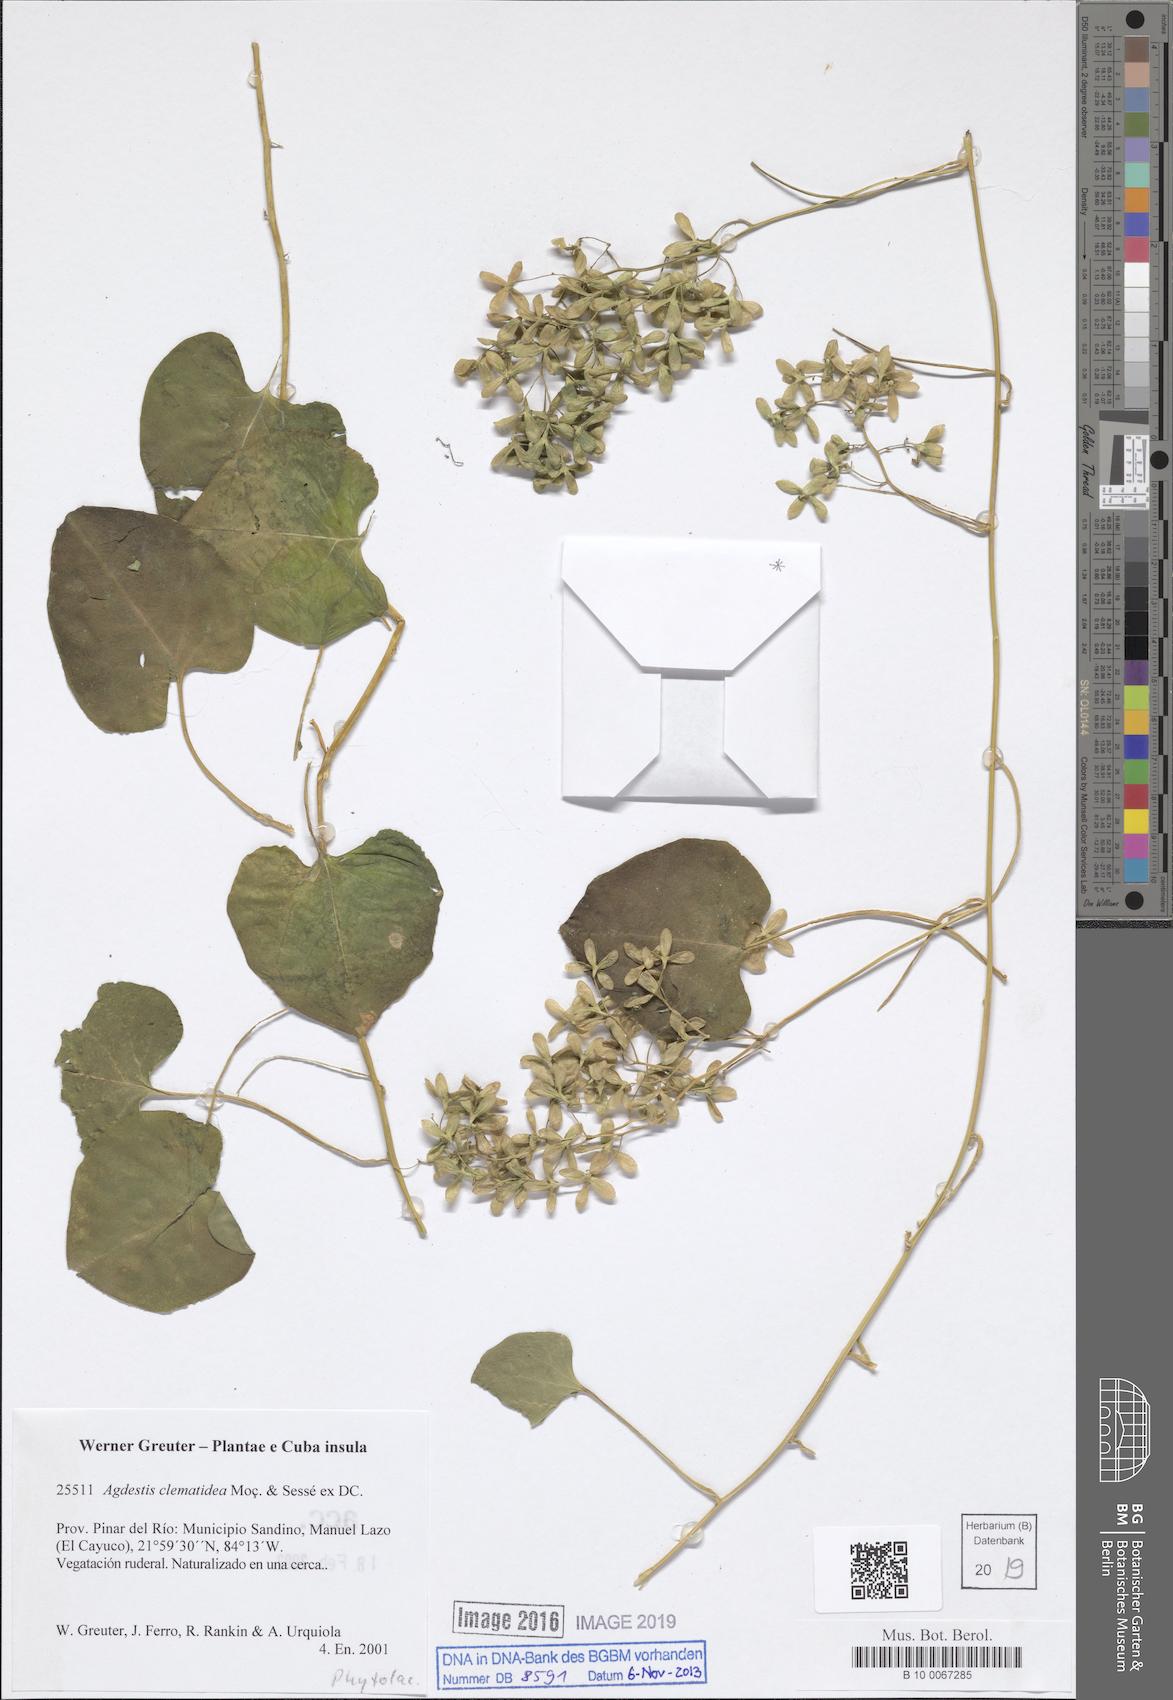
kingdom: Plantae
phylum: Tracheophyta
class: Magnoliopsida
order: Caryophyllales
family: Agdestidaceae
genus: Agdestis
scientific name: Agdestis clematidea
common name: Rockroot
